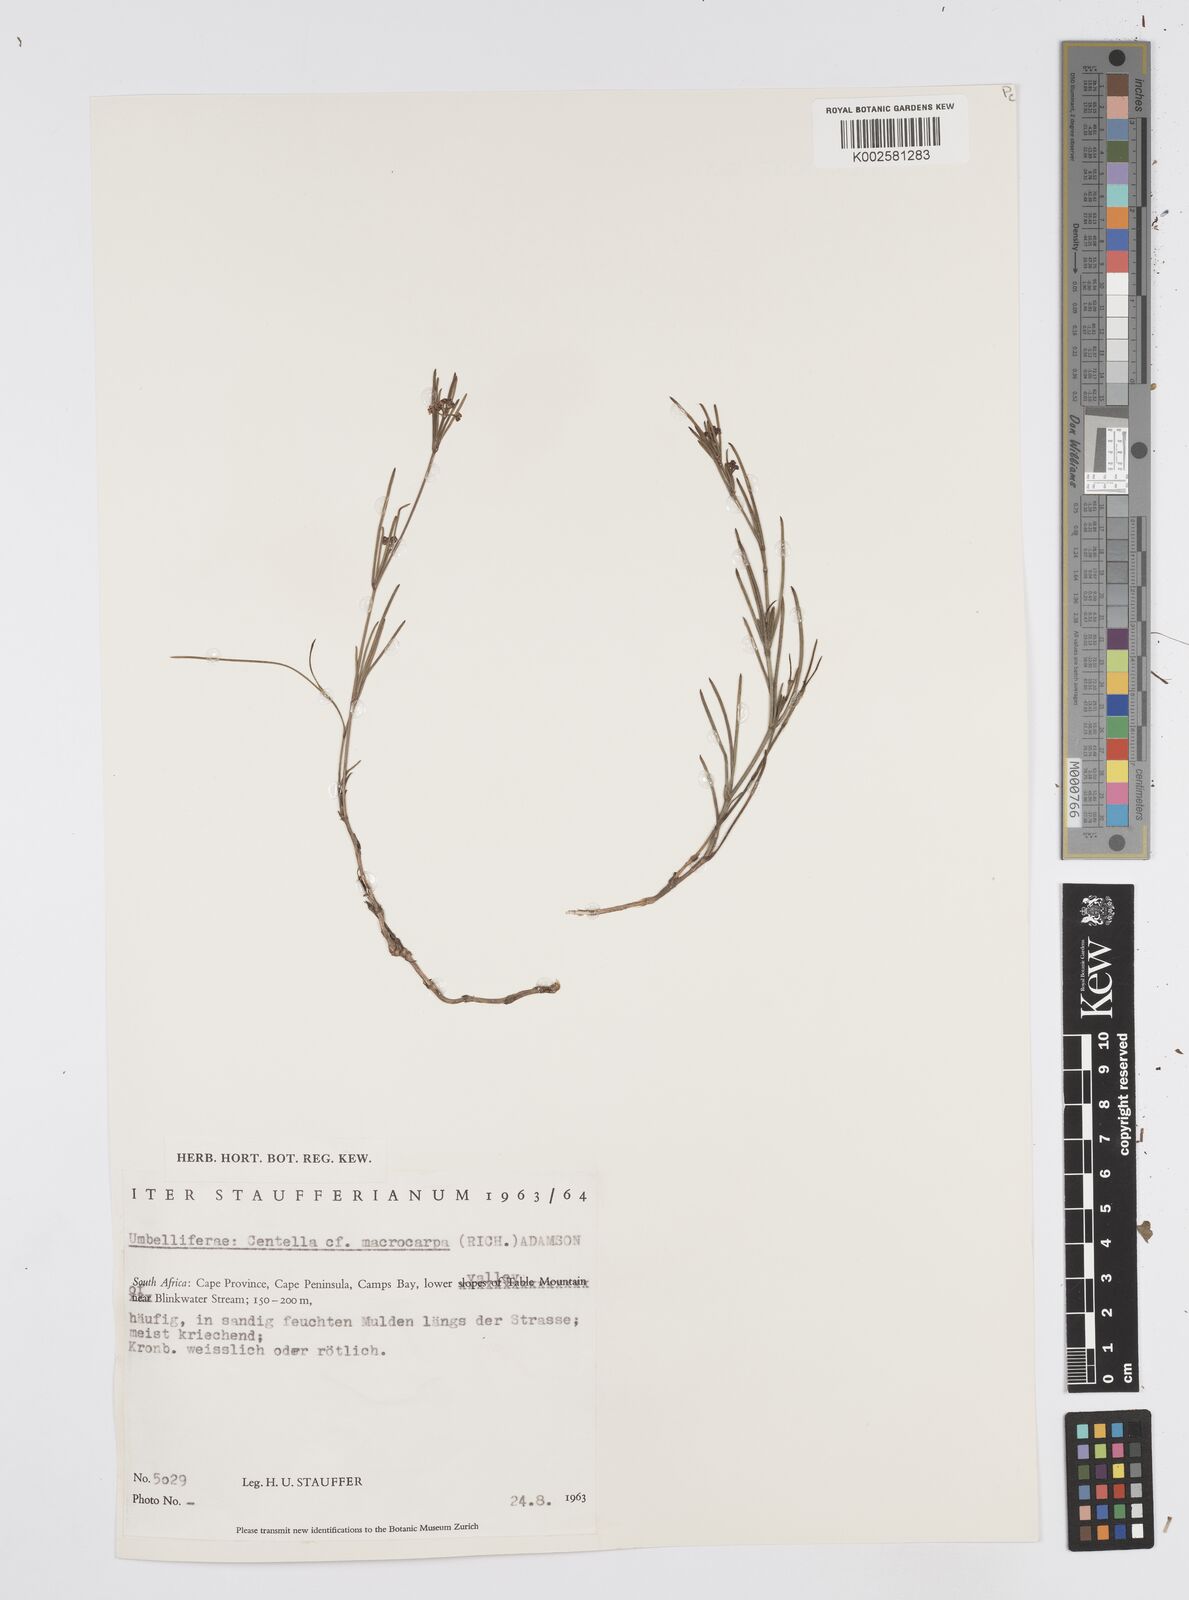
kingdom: Plantae
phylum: Tracheophyta
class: Magnoliopsida
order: Apiales
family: Apiaceae
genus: Centella
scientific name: Centella macrocarpa
